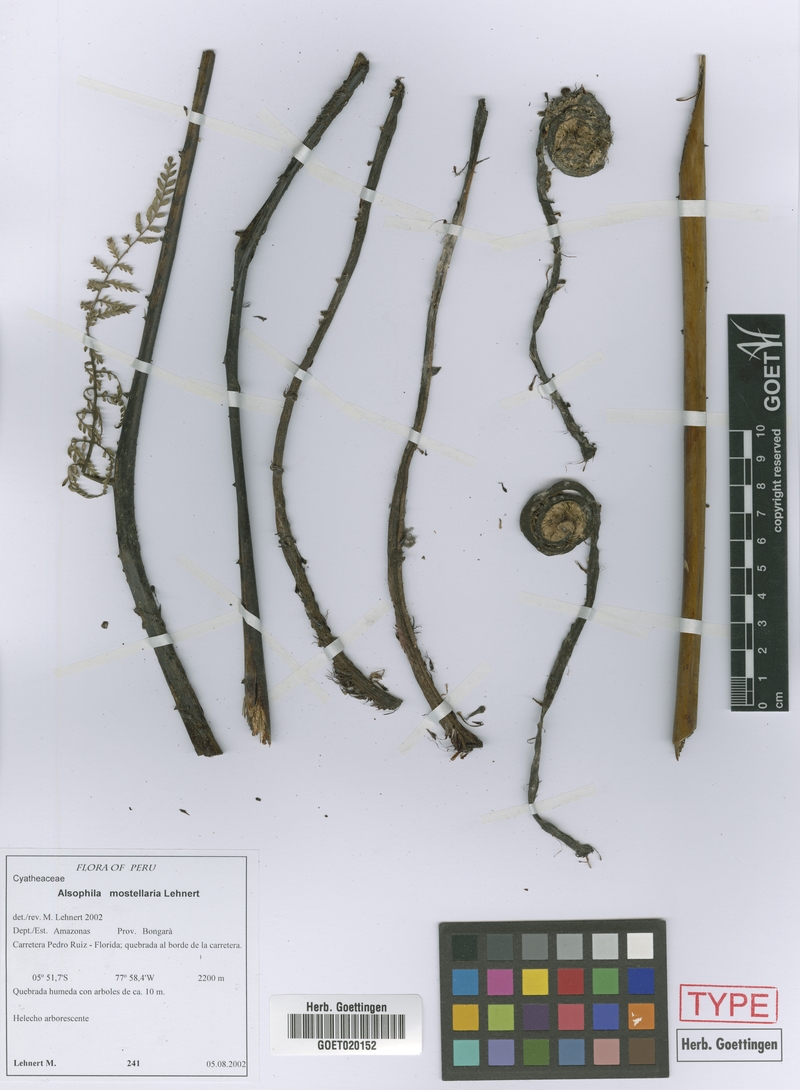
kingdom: Plantae
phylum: Tracheophyta
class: Polypodiopsida
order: Cyatheales
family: Cyatheaceae
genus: Alsophila
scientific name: Alsophila mostellaria
